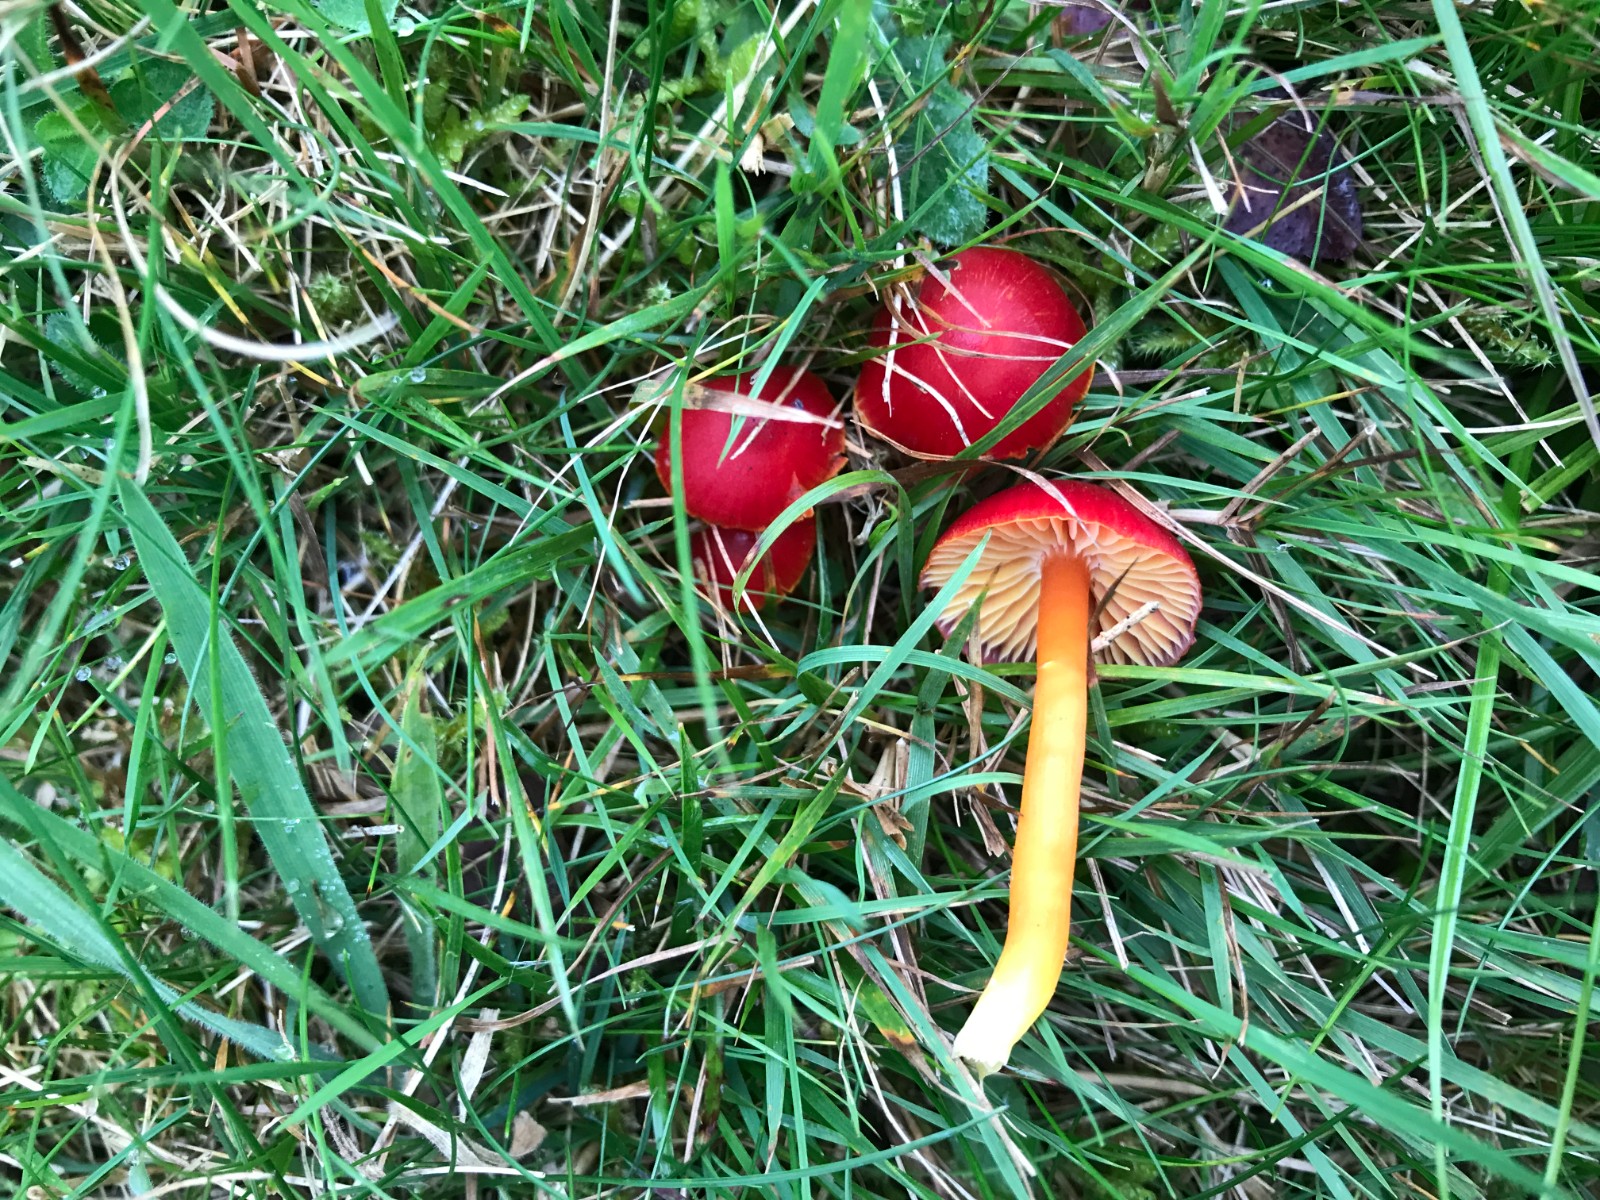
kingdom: Fungi
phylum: Basidiomycota
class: Agaricomycetes
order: Agaricales
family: Hygrophoraceae
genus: Hygrocybe
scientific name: Hygrocybe coccinea
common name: cinnober-vokshat
